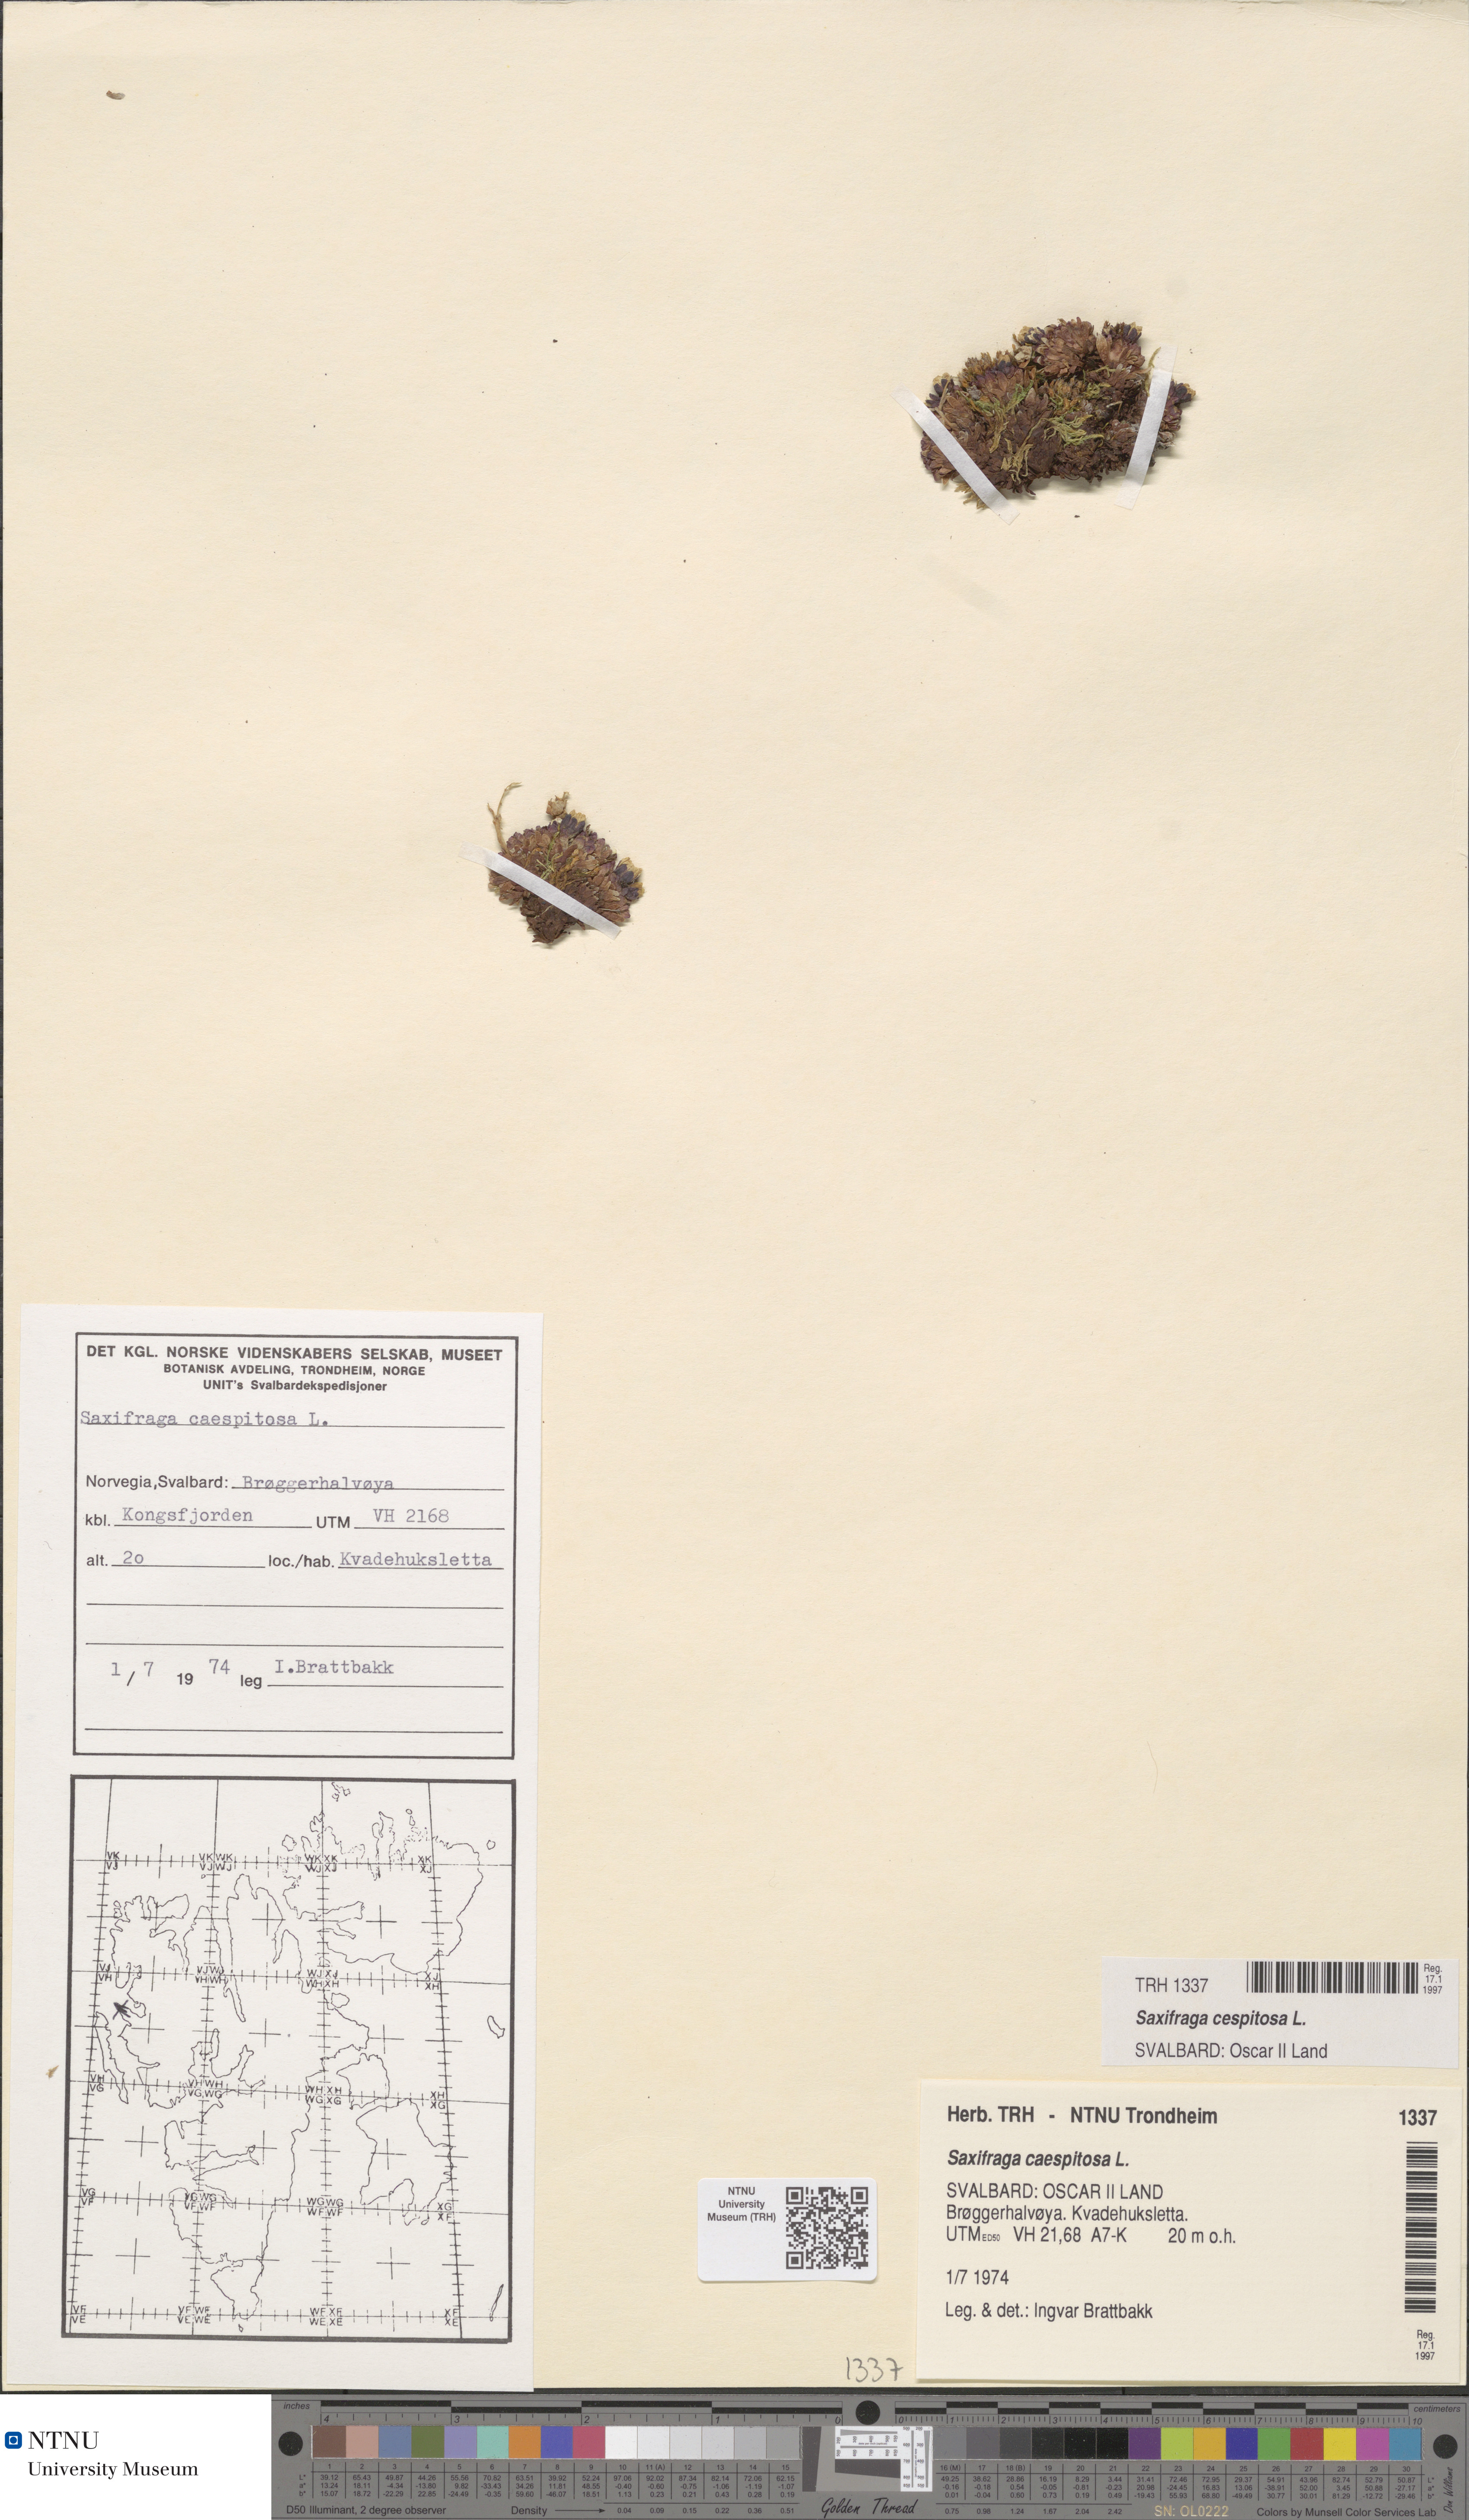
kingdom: Plantae
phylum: Tracheophyta
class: Magnoliopsida
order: Saxifragales
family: Saxifragaceae
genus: Saxifraga
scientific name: Saxifraga cespitosa
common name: Tufted saxifrage
